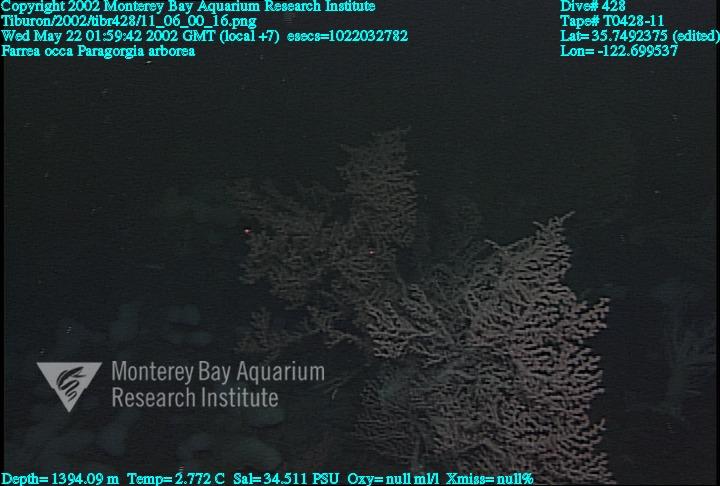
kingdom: Animalia
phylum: Porifera
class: Hexactinellida
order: Sceptrulophora
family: Farreidae
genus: Farrea
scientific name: Farrea occa
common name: Reversed glass sponge
